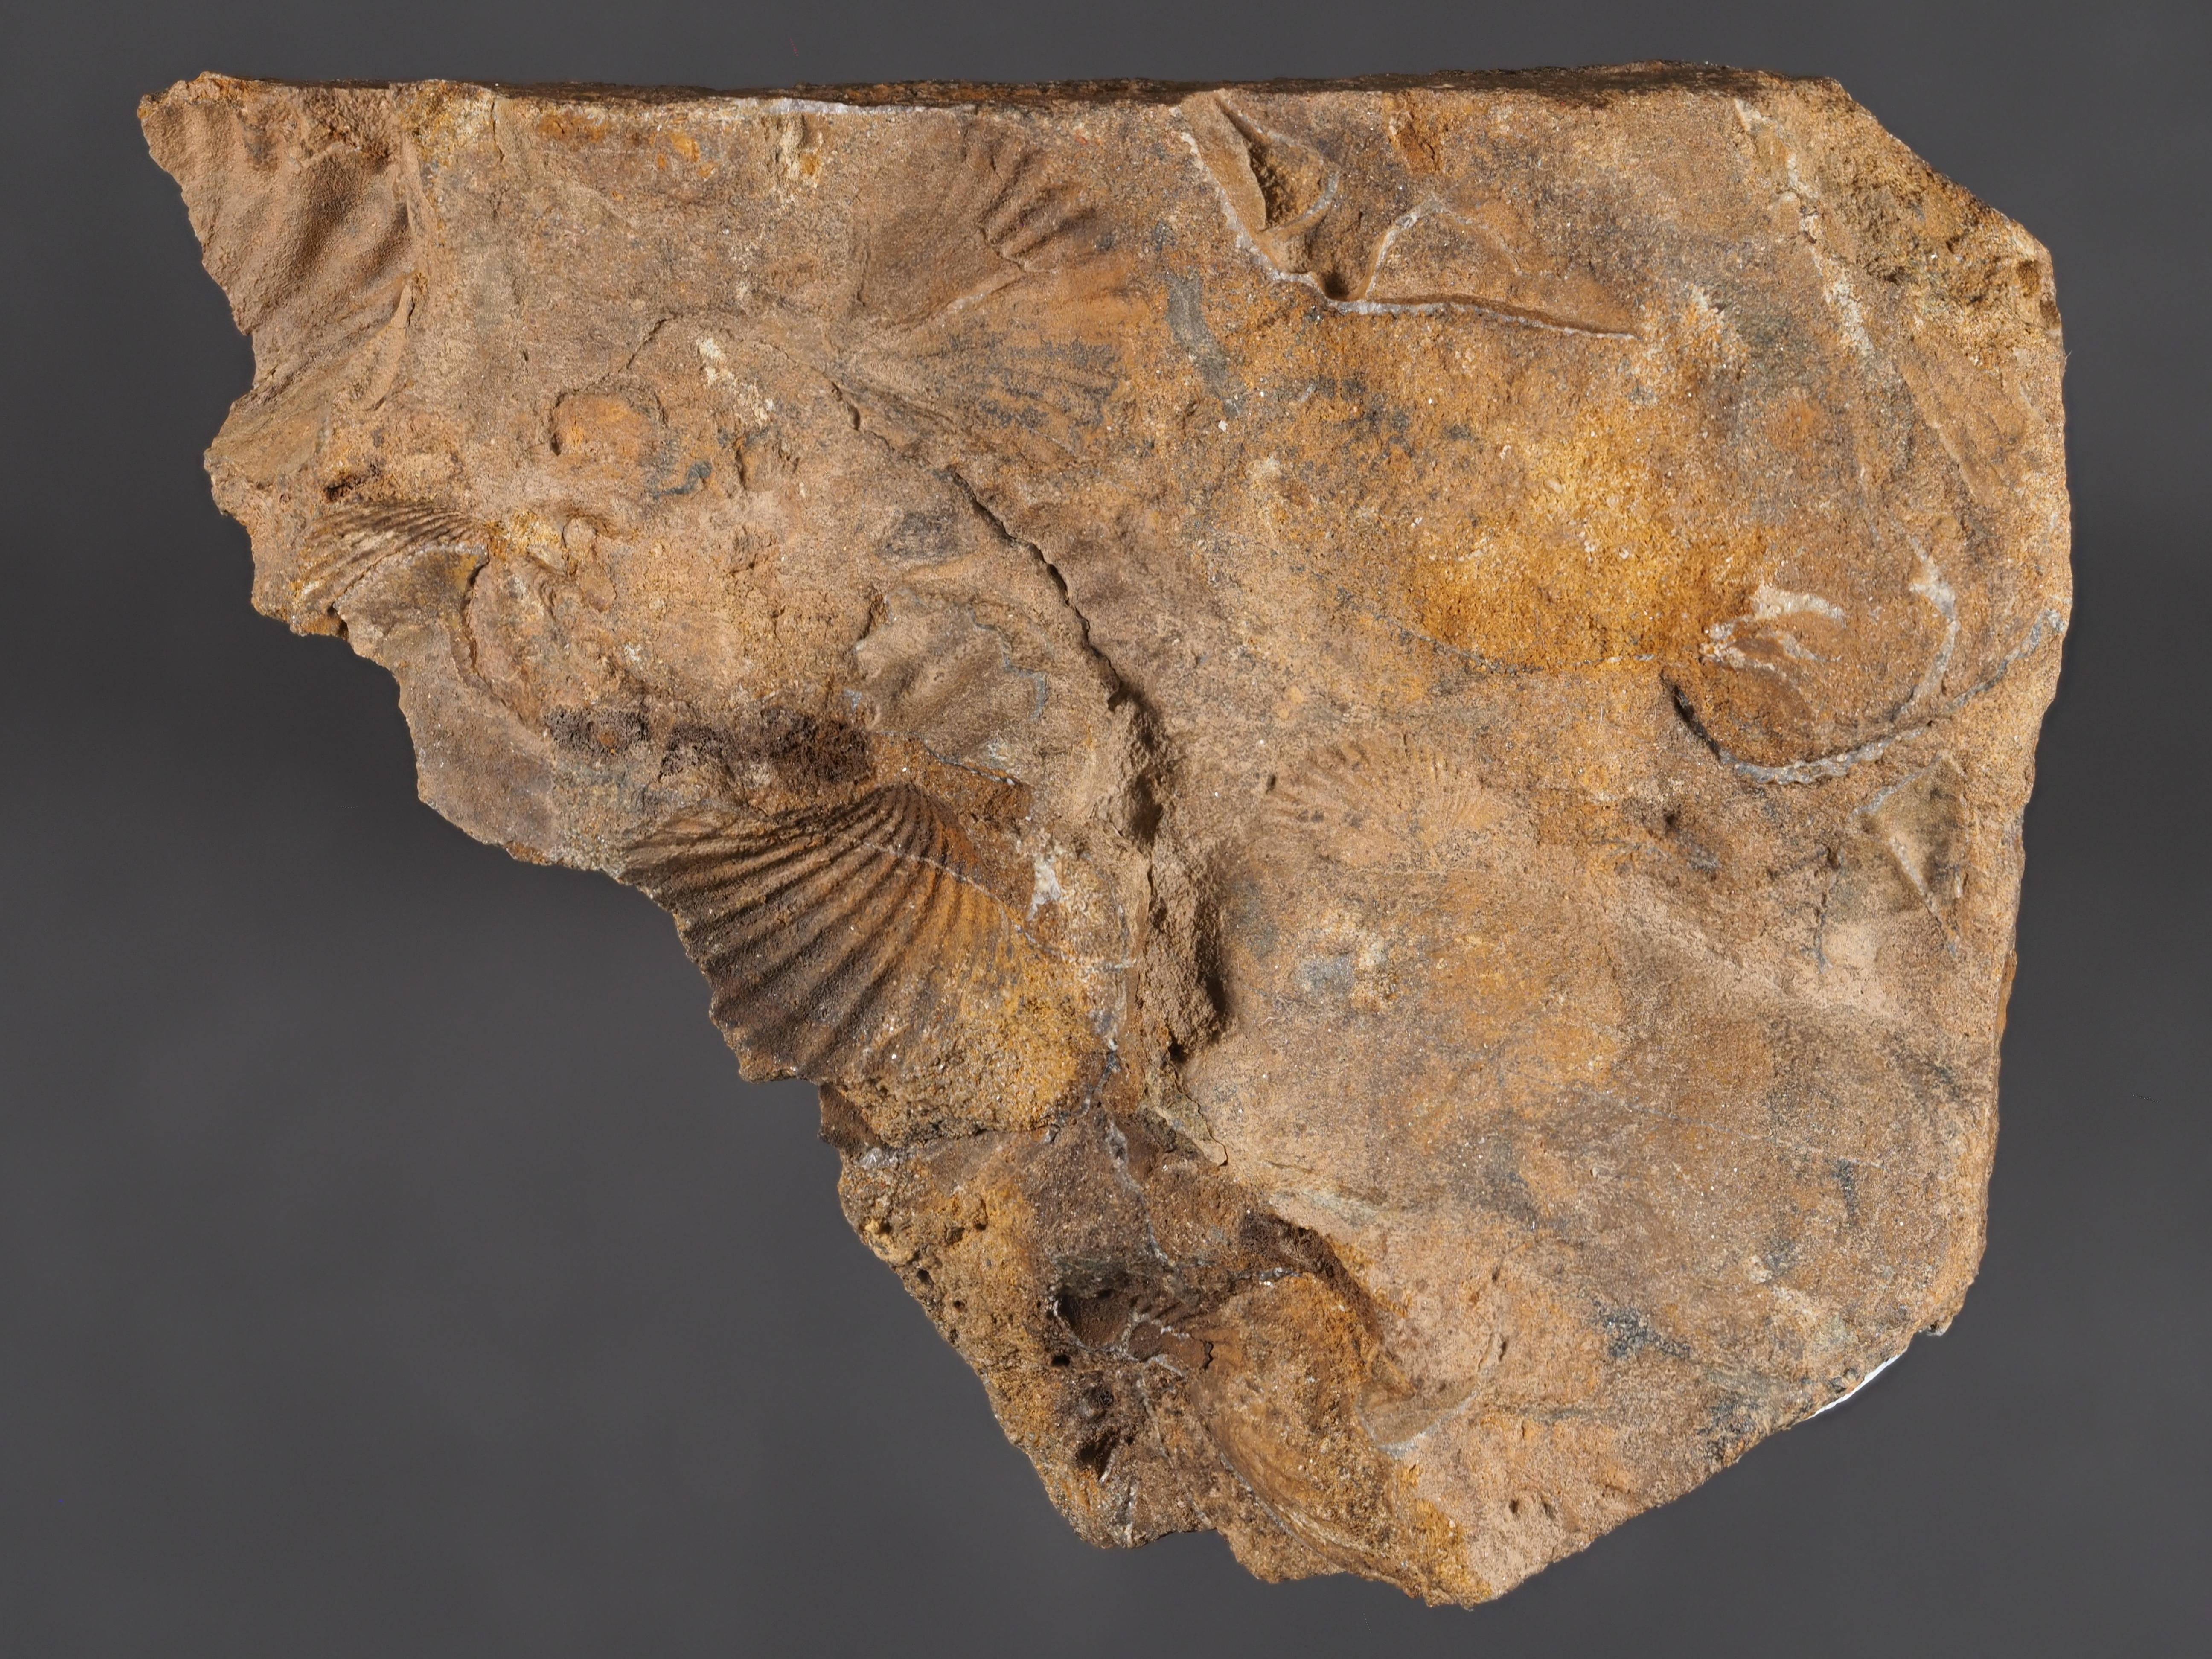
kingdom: Animalia
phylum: Mollusca
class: Bivalvia
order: Ostreida
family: Pterineidae
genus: Leptodesma
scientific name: Leptodesma
